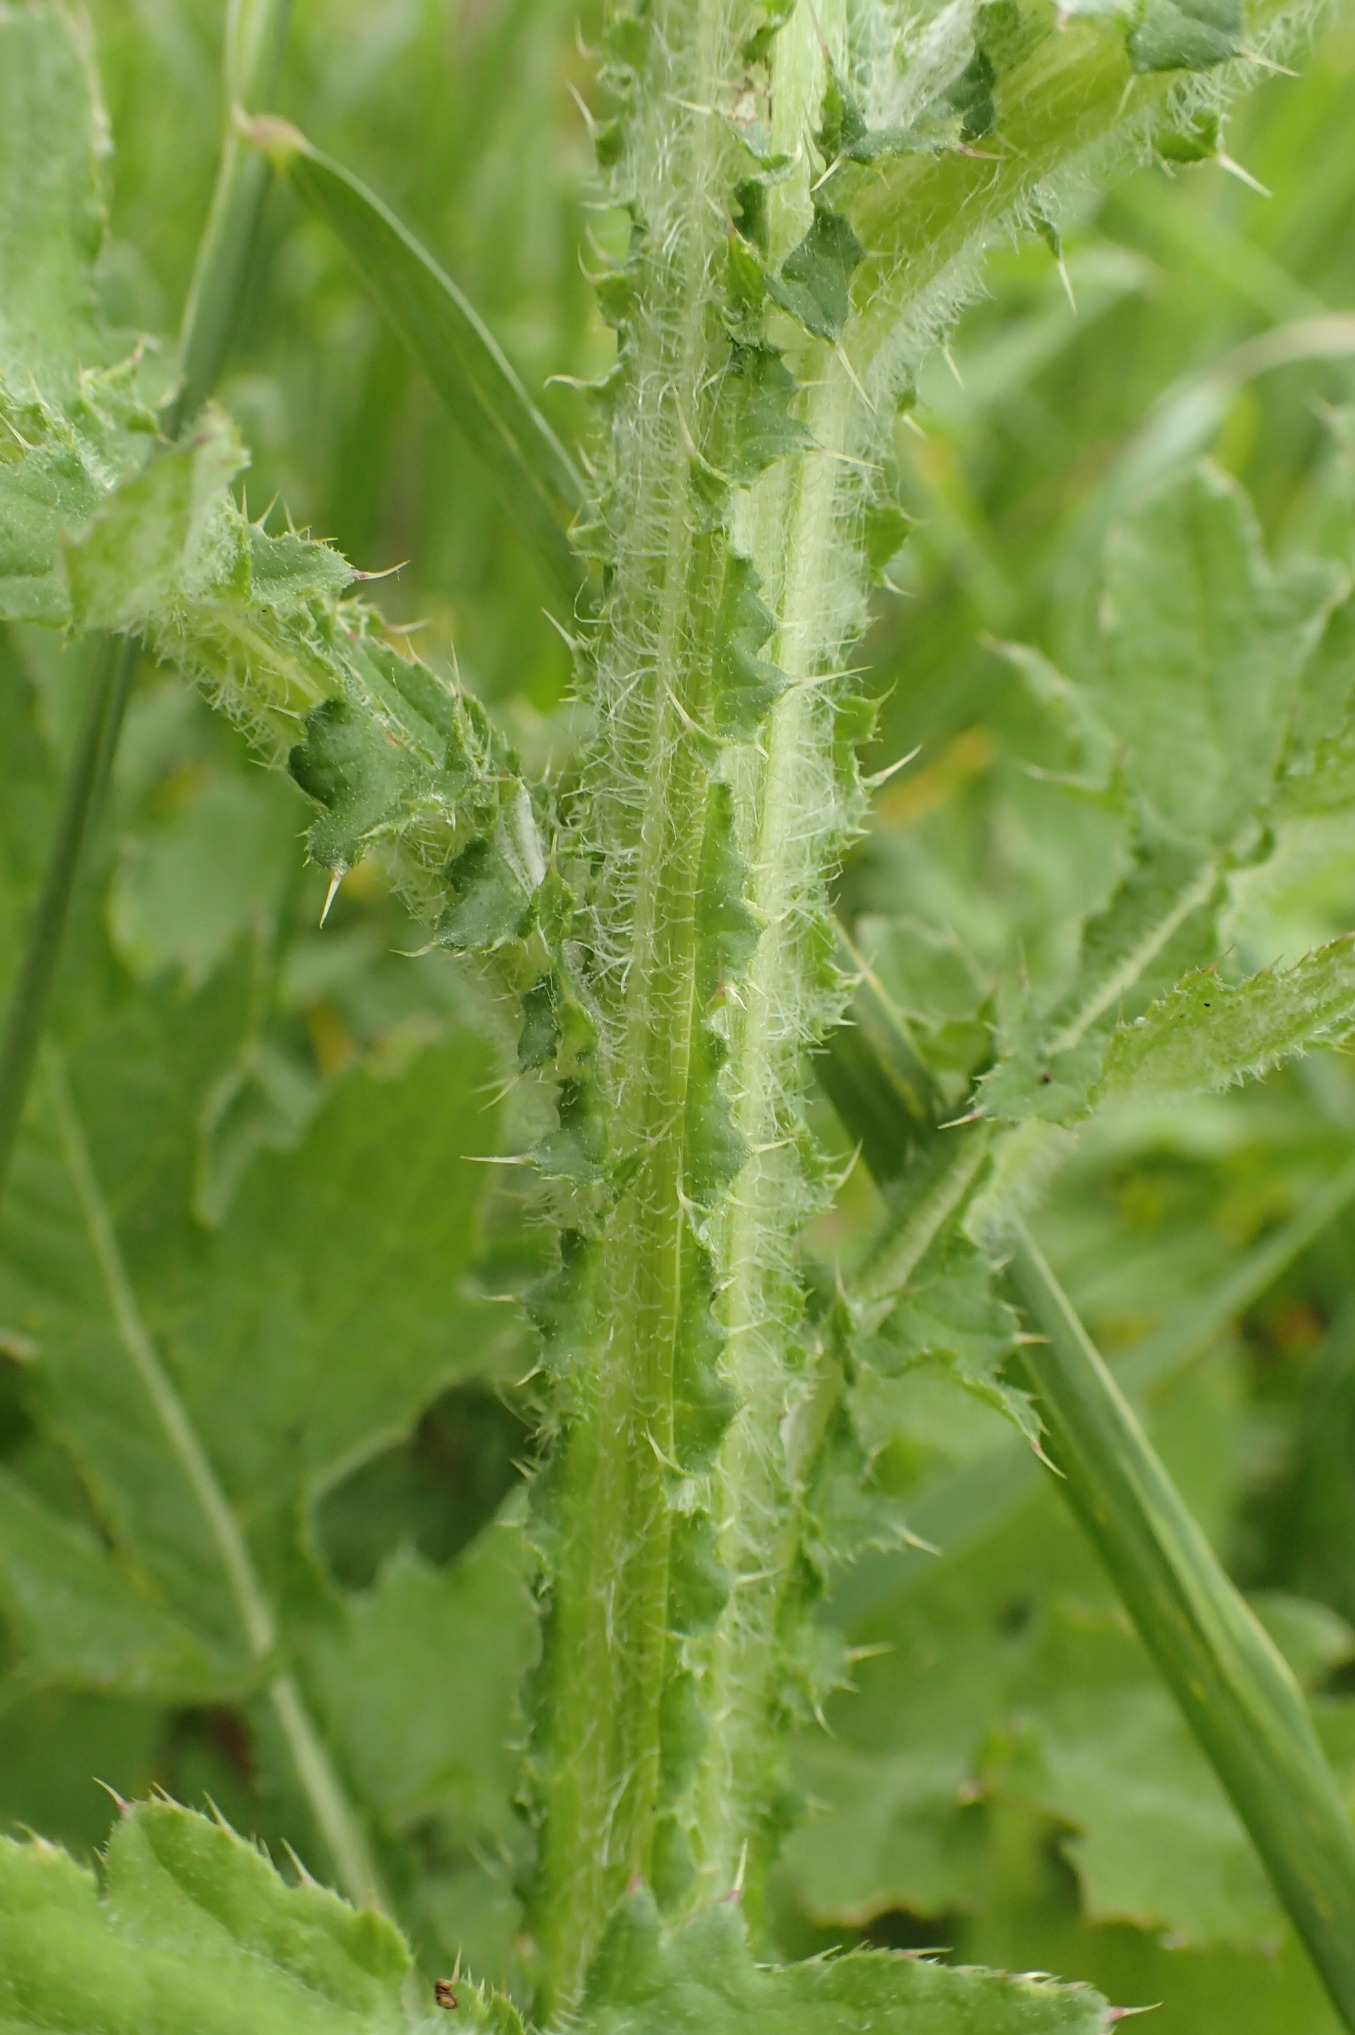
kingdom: Plantae
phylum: Tracheophyta
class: Magnoliopsida
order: Asterales
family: Asteraceae
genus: Carduus
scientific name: Carduus crispus
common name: Kruset tidsel
